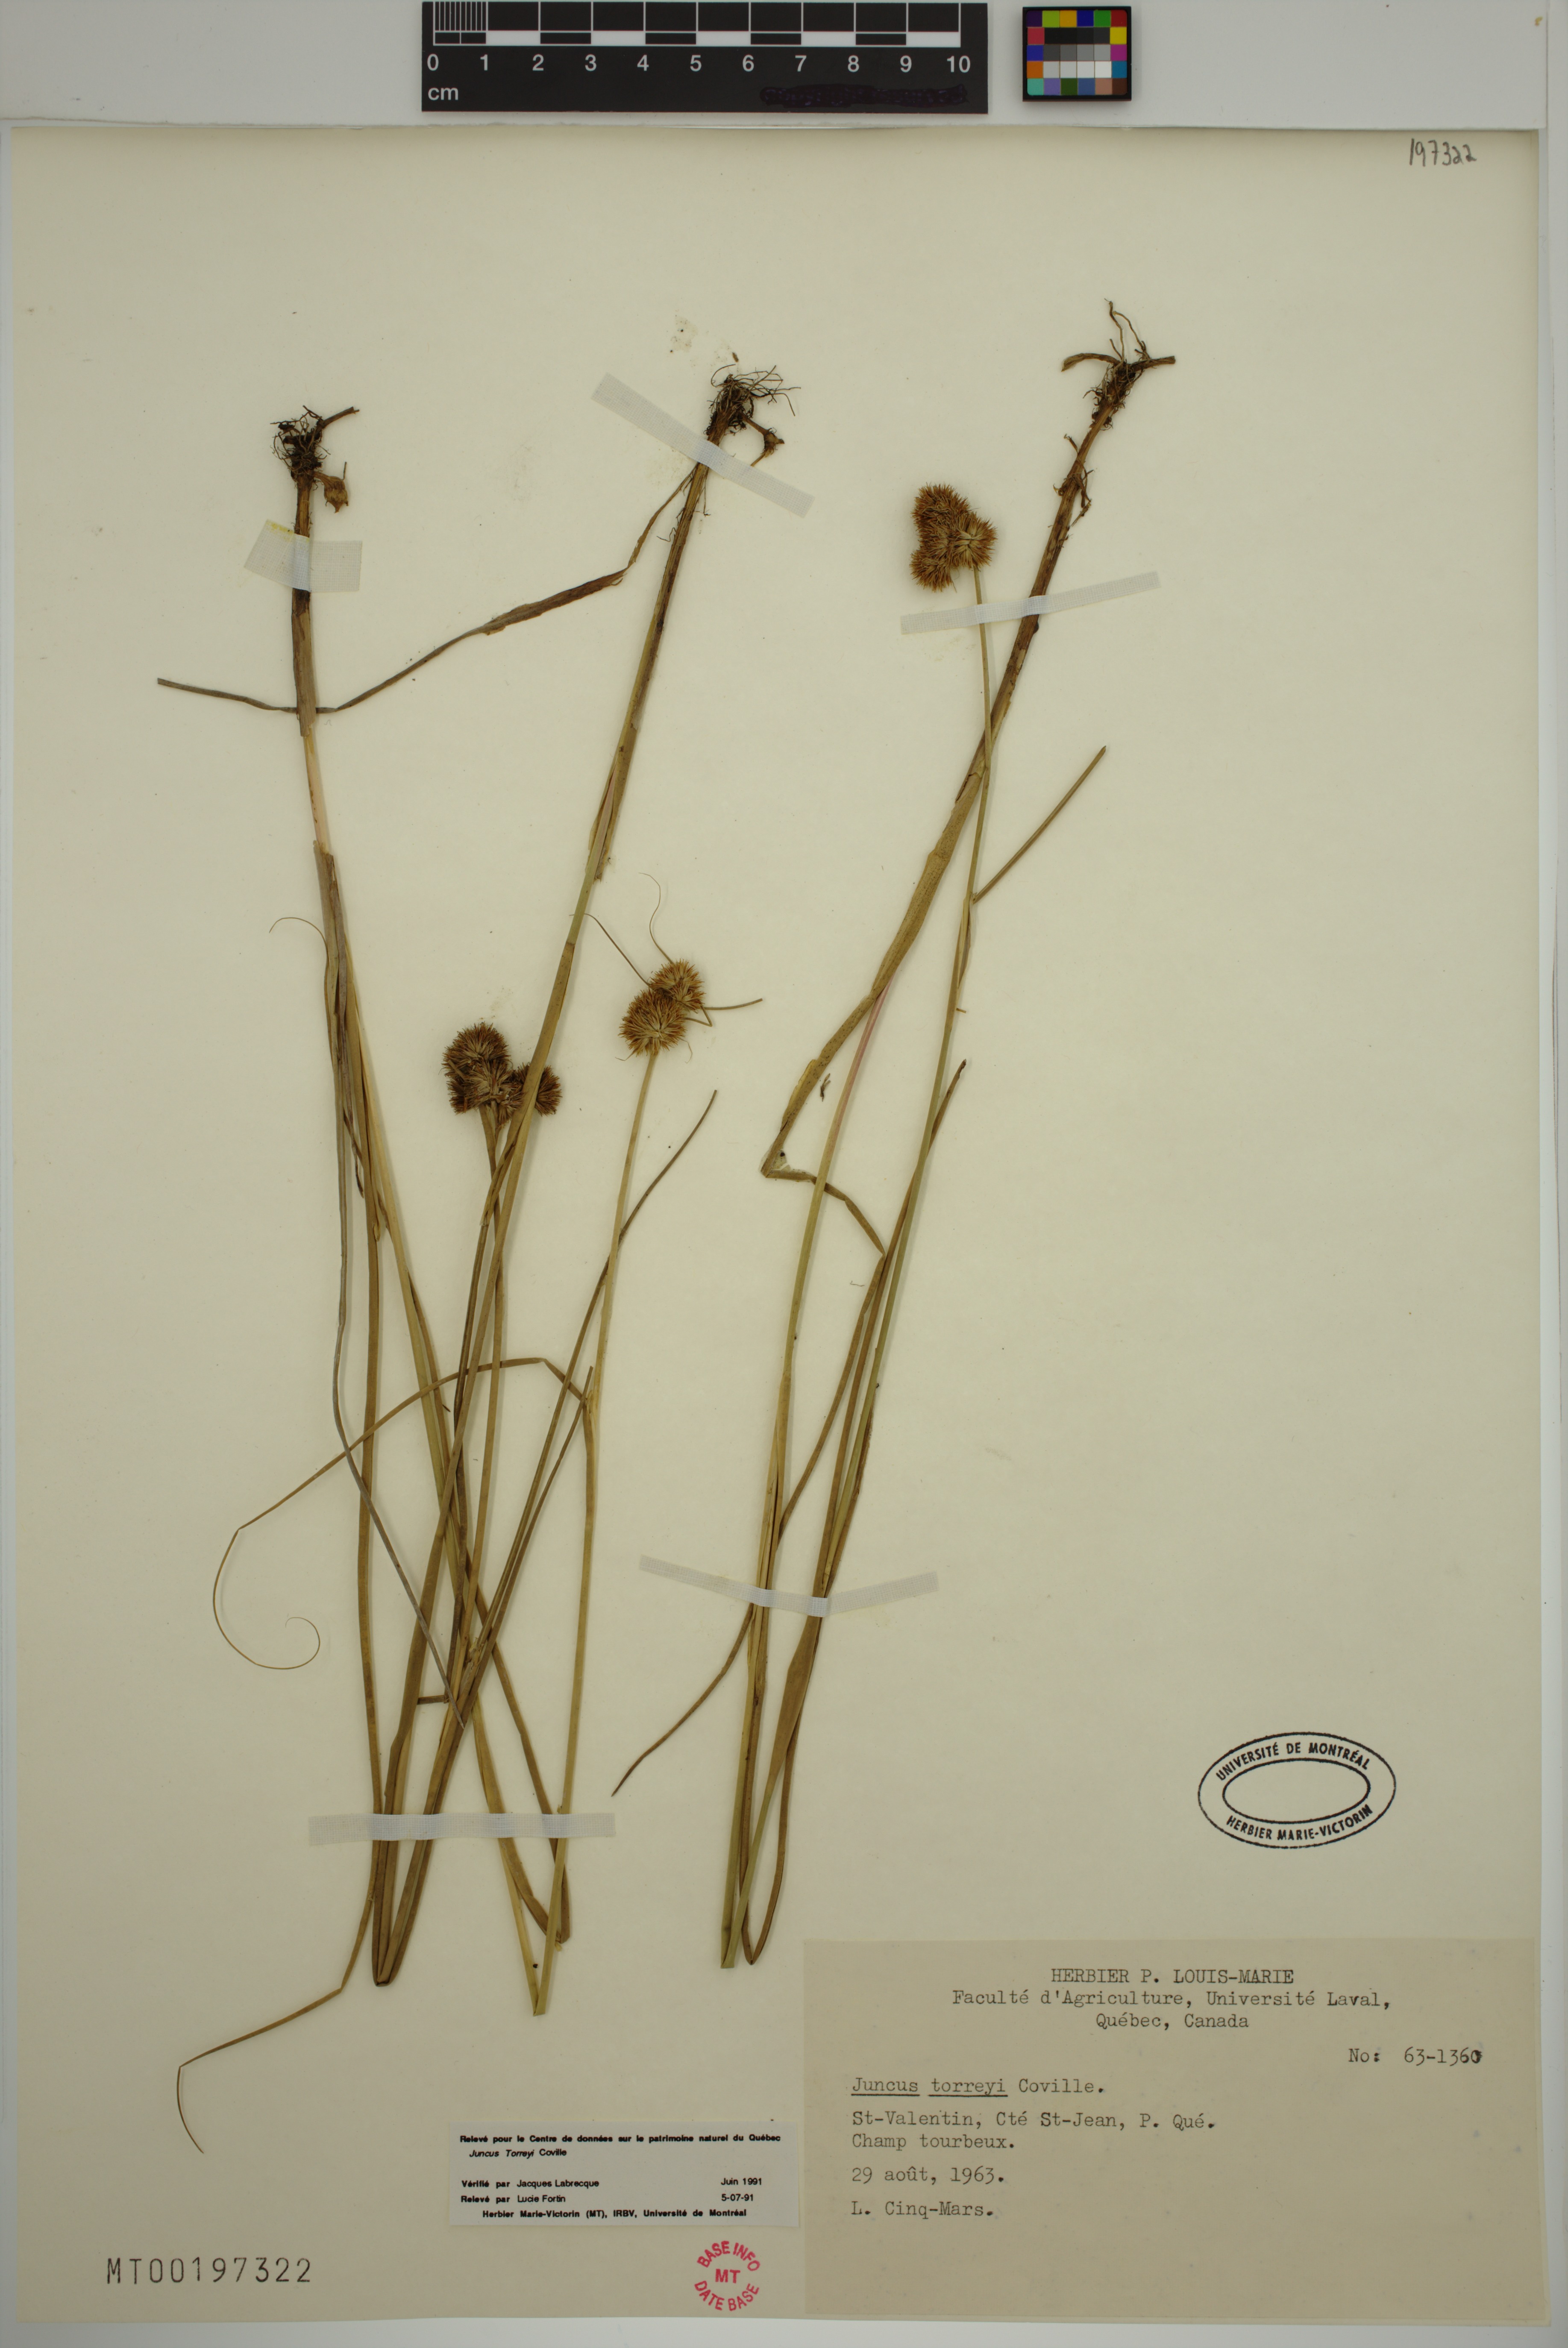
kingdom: Plantae
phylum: Tracheophyta
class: Liliopsida
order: Poales
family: Juncaceae
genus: Juncus
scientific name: Juncus torreyi
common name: Torrey's rush
